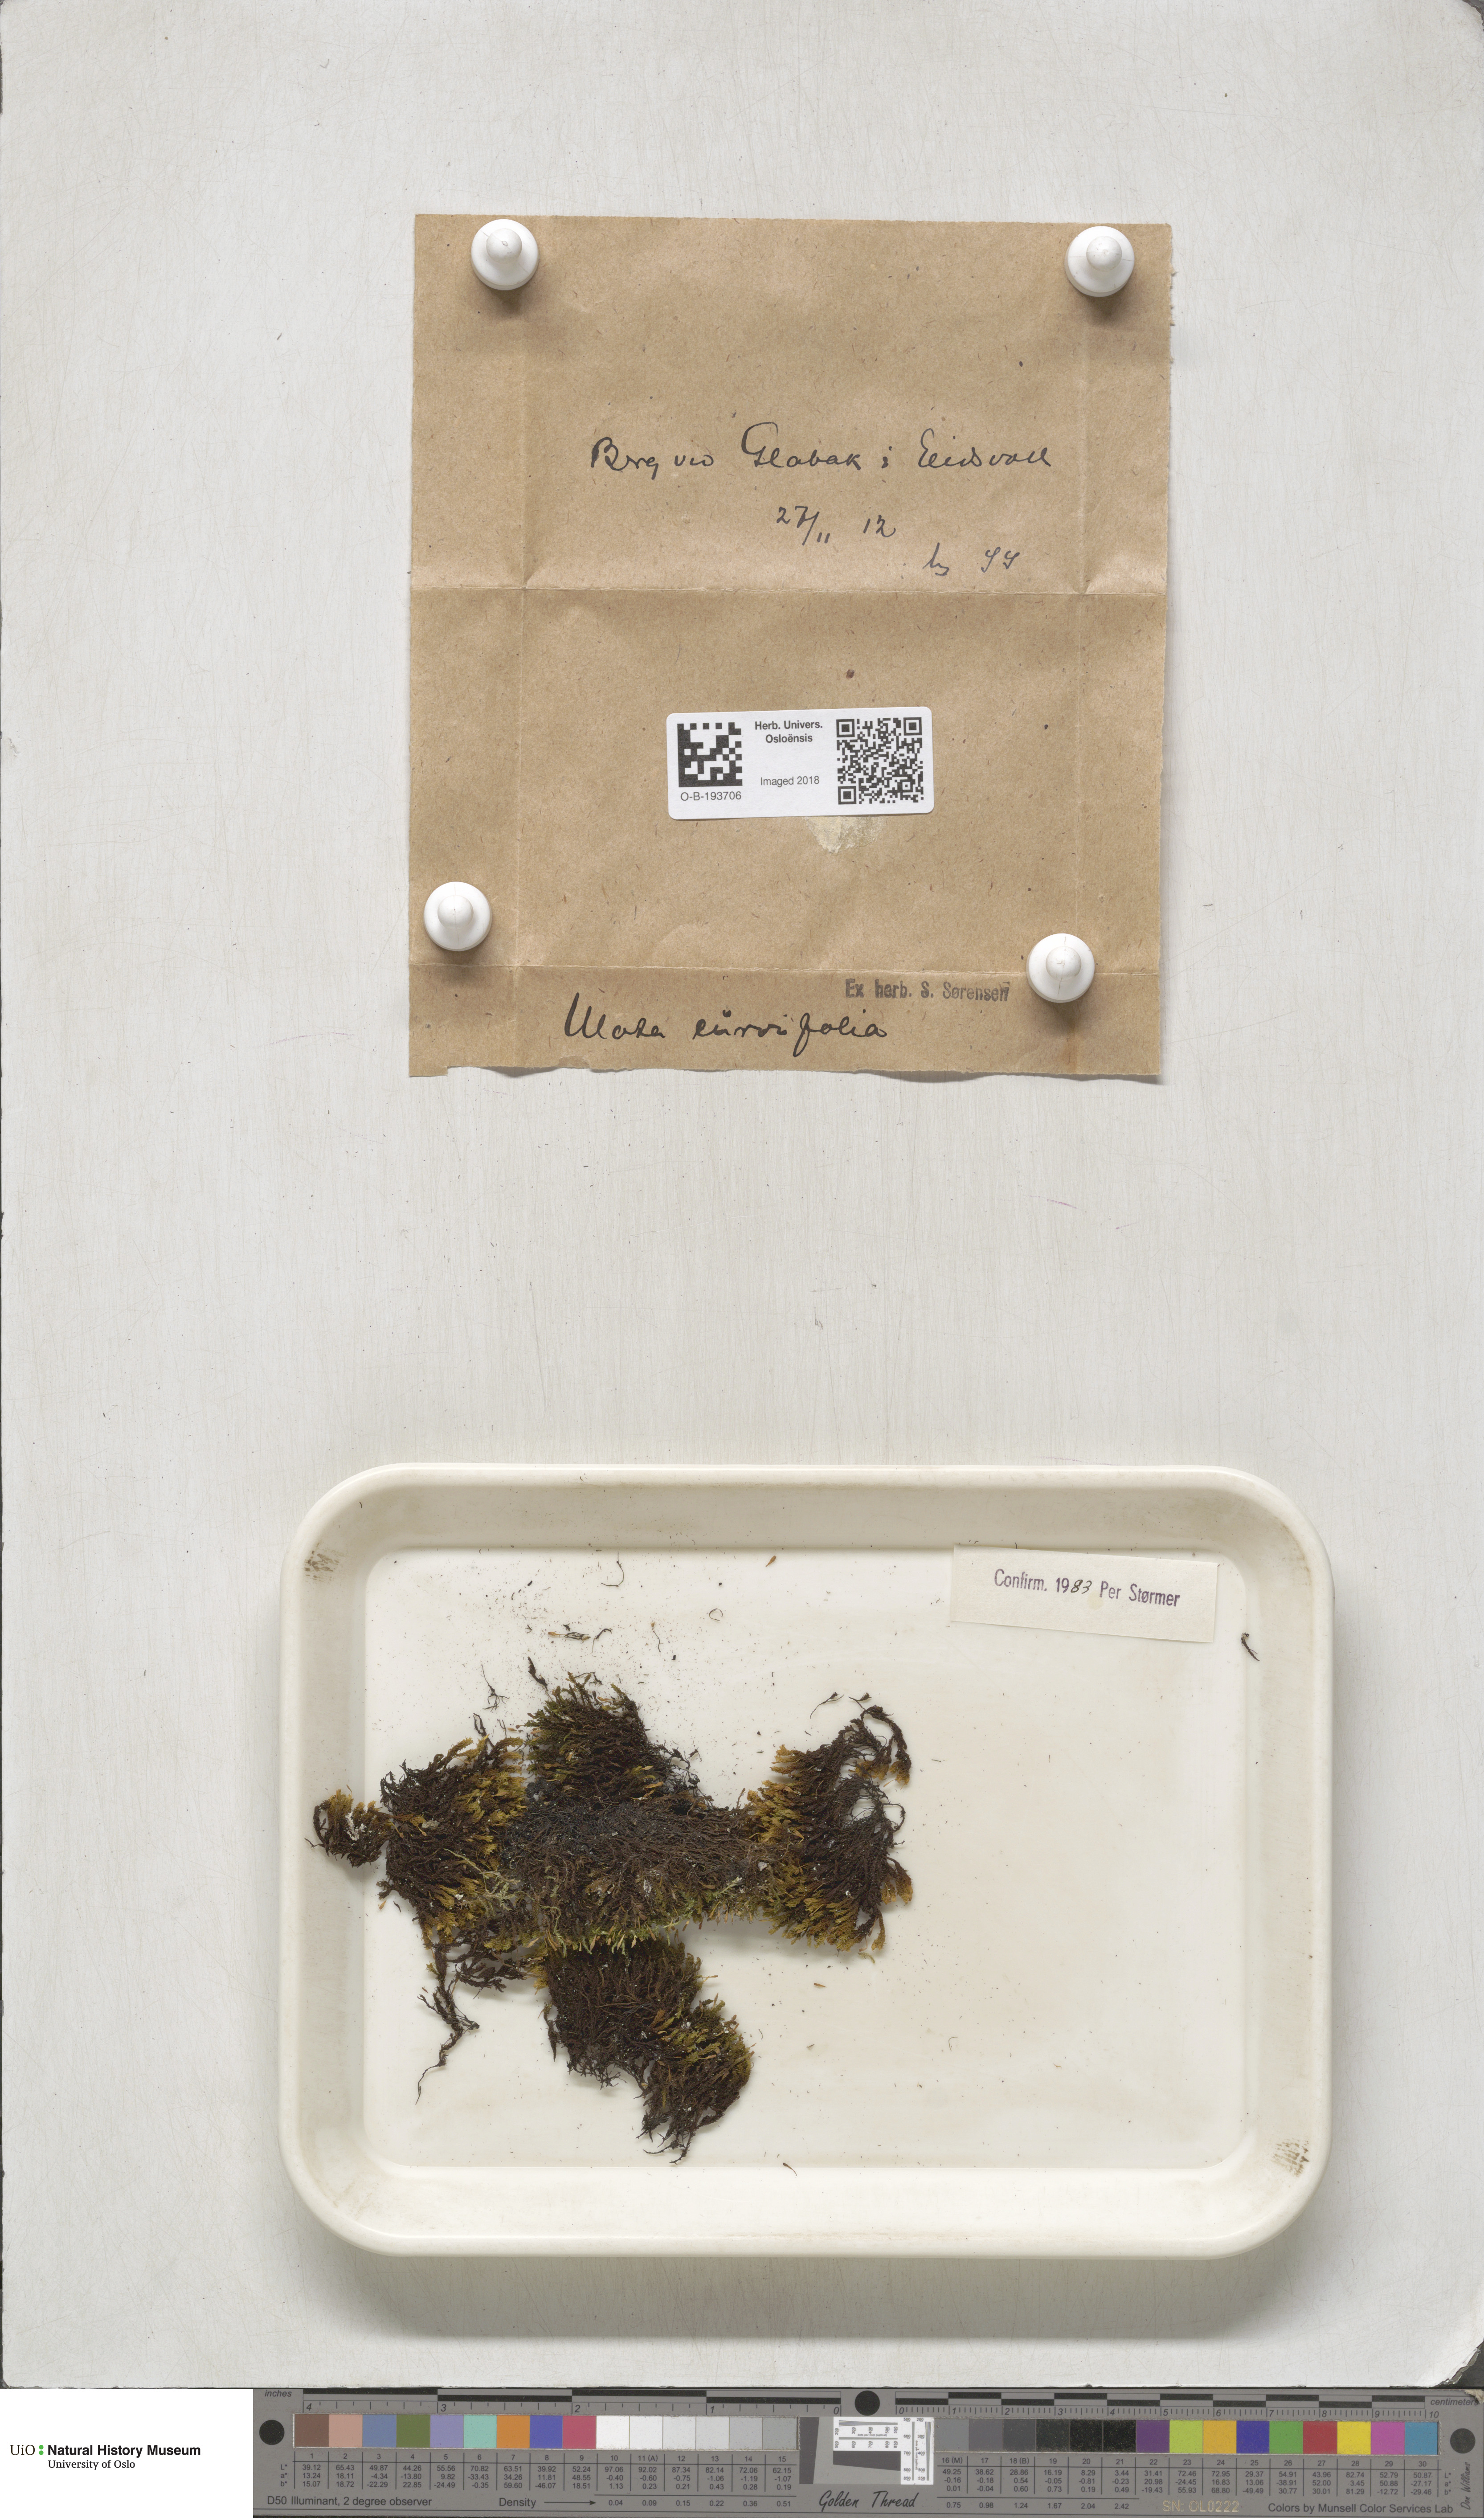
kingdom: Plantae
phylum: Bryophyta
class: Bryopsida
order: Orthotrichales
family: Orthotrichaceae
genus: Ulota
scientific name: Ulota curvifolia
